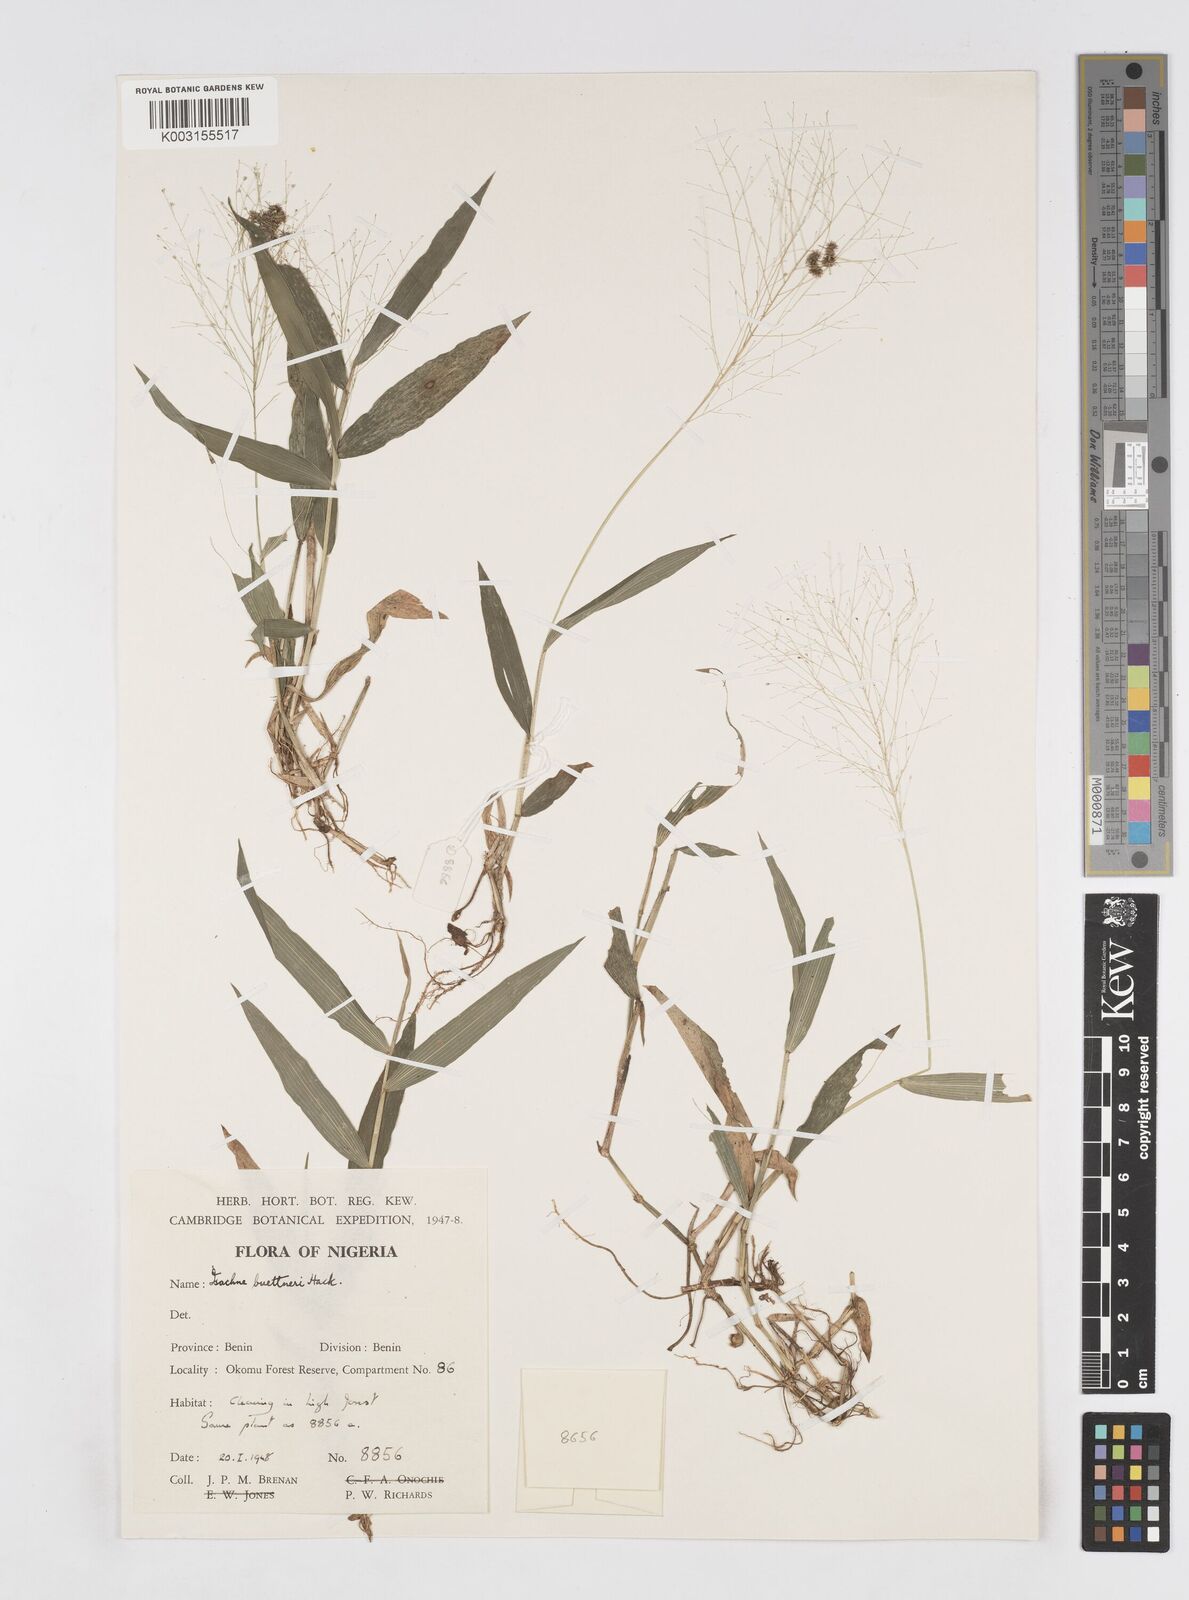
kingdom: Plantae
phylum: Tracheophyta
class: Liliopsida
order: Poales
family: Poaceae
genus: Isachne
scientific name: Isachne albens
